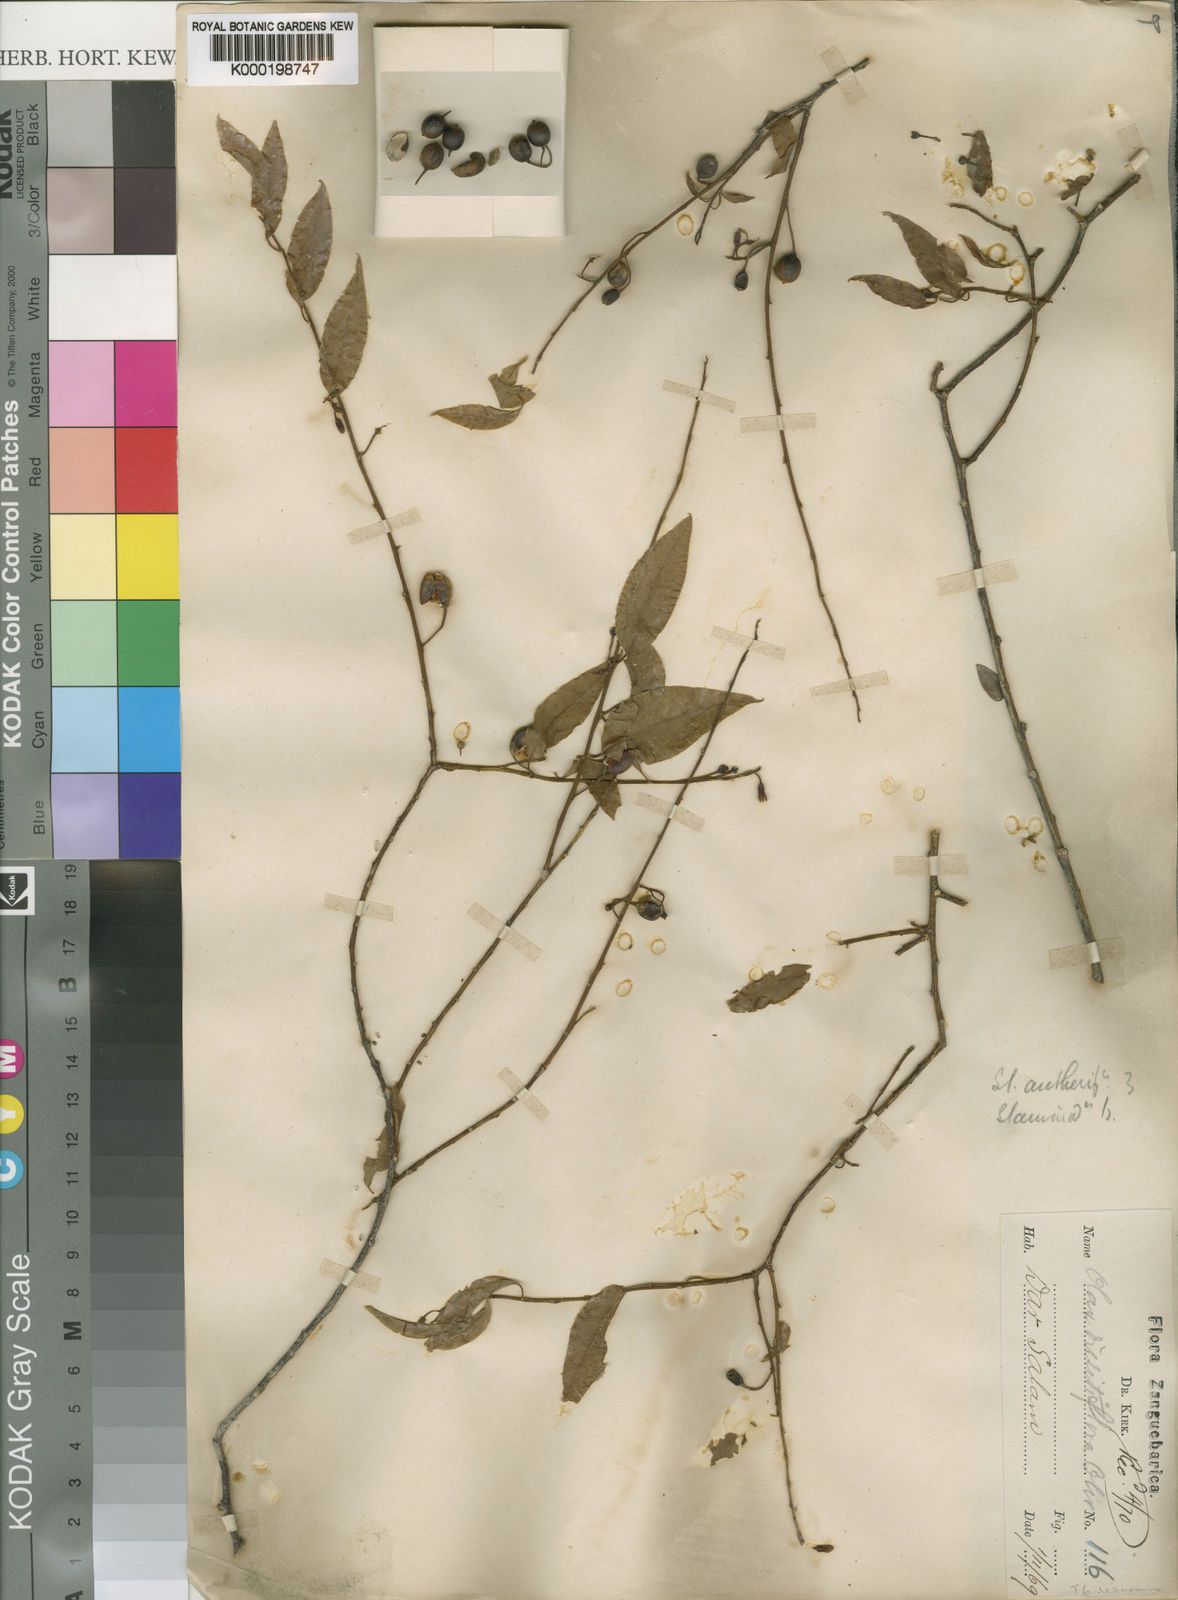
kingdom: Plantae
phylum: Tracheophyta
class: Magnoliopsida
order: Santalales
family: Olacaceae
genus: Olax
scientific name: Olax dissitiflora
